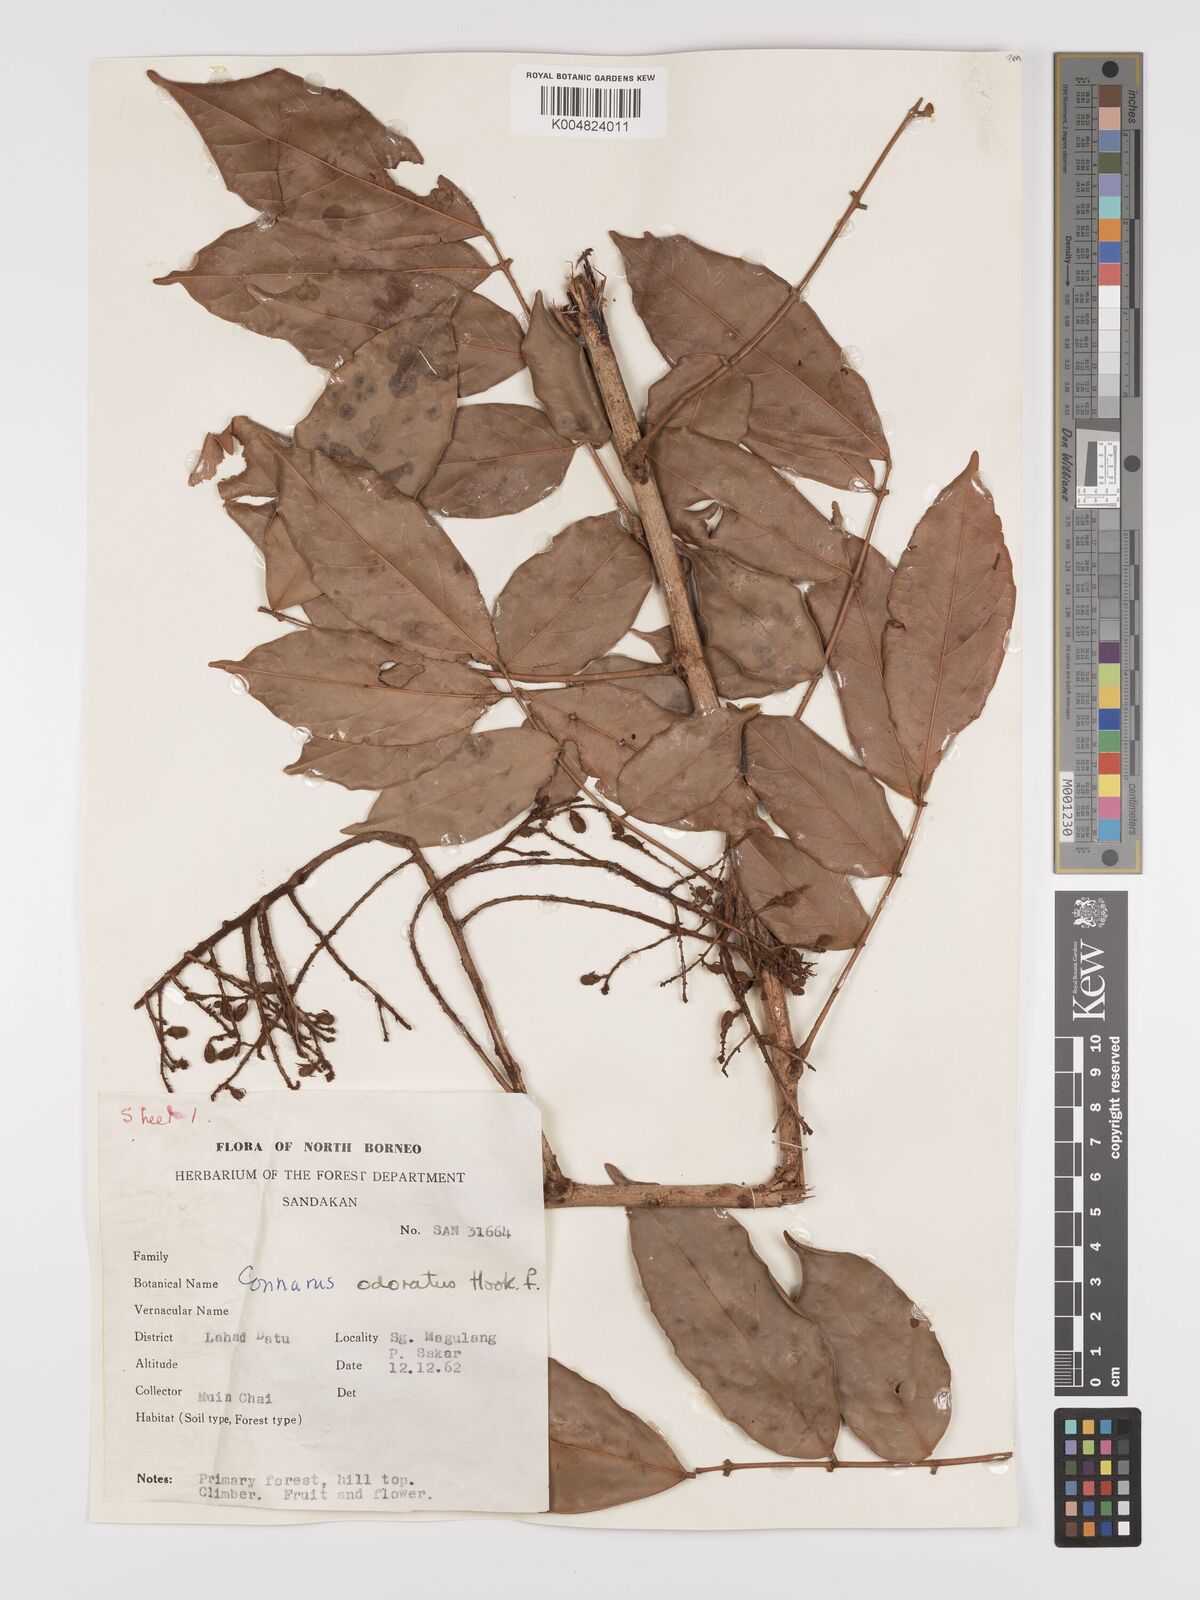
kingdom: Plantae
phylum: Tracheophyta
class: Magnoliopsida
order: Oxalidales
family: Connaraceae
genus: Connarus
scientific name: Connarus odoratus
